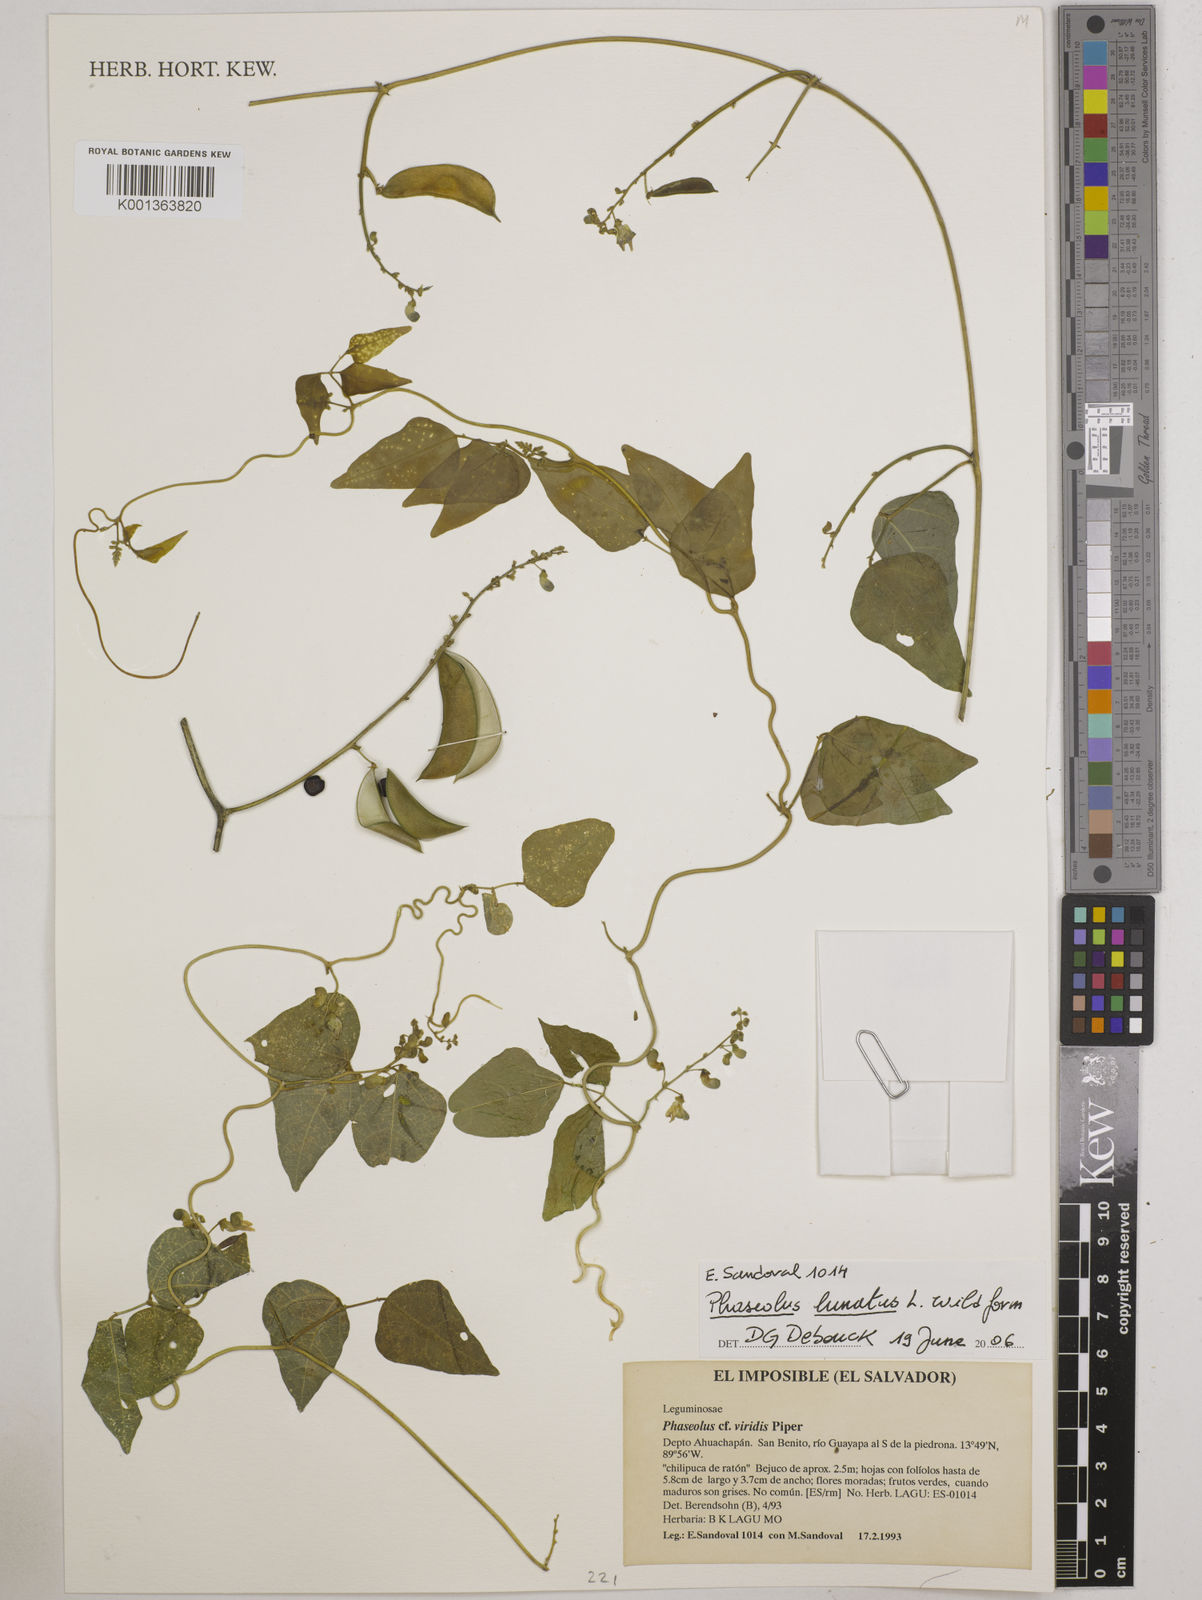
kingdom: Plantae
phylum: Tracheophyta
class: Magnoliopsida
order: Fabales
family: Fabaceae
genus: Phaseolus
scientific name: Phaseolus lunatus
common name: Sieva bean
